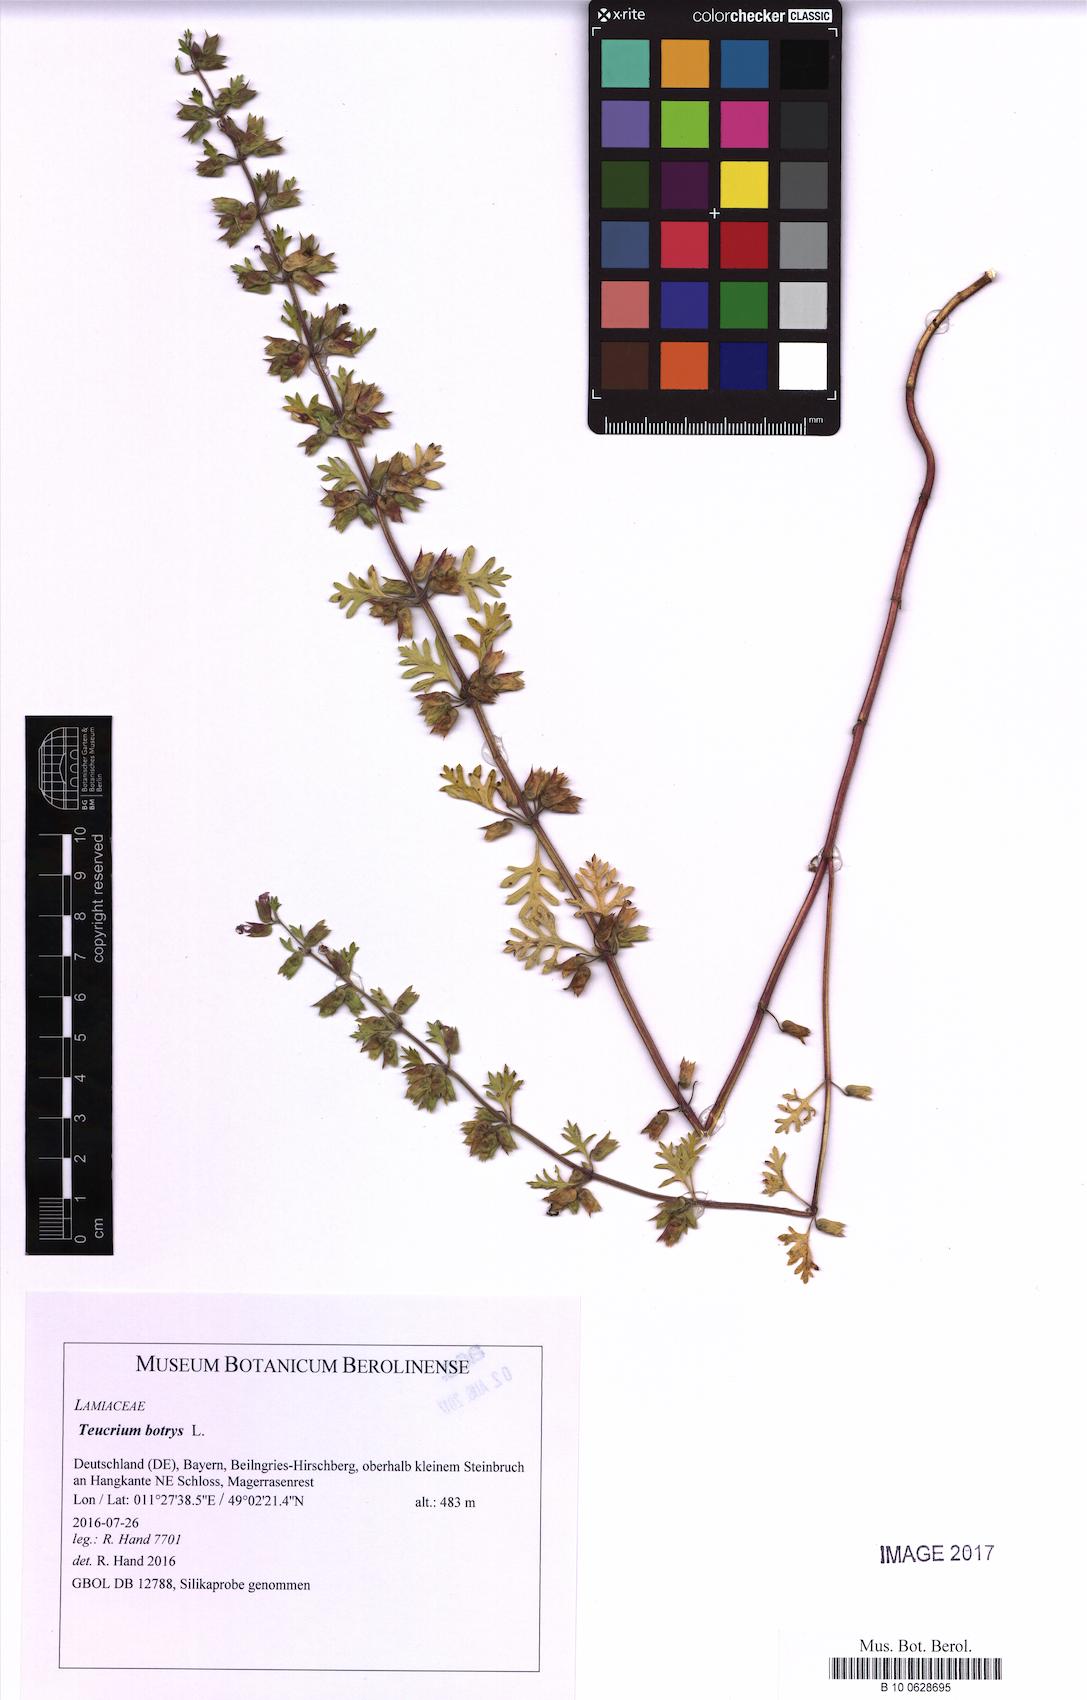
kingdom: Plantae
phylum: Tracheophyta
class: Magnoliopsida
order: Lamiales
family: Lamiaceae
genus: Teucrium
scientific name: Teucrium botrys
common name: Cut-leaved germander
